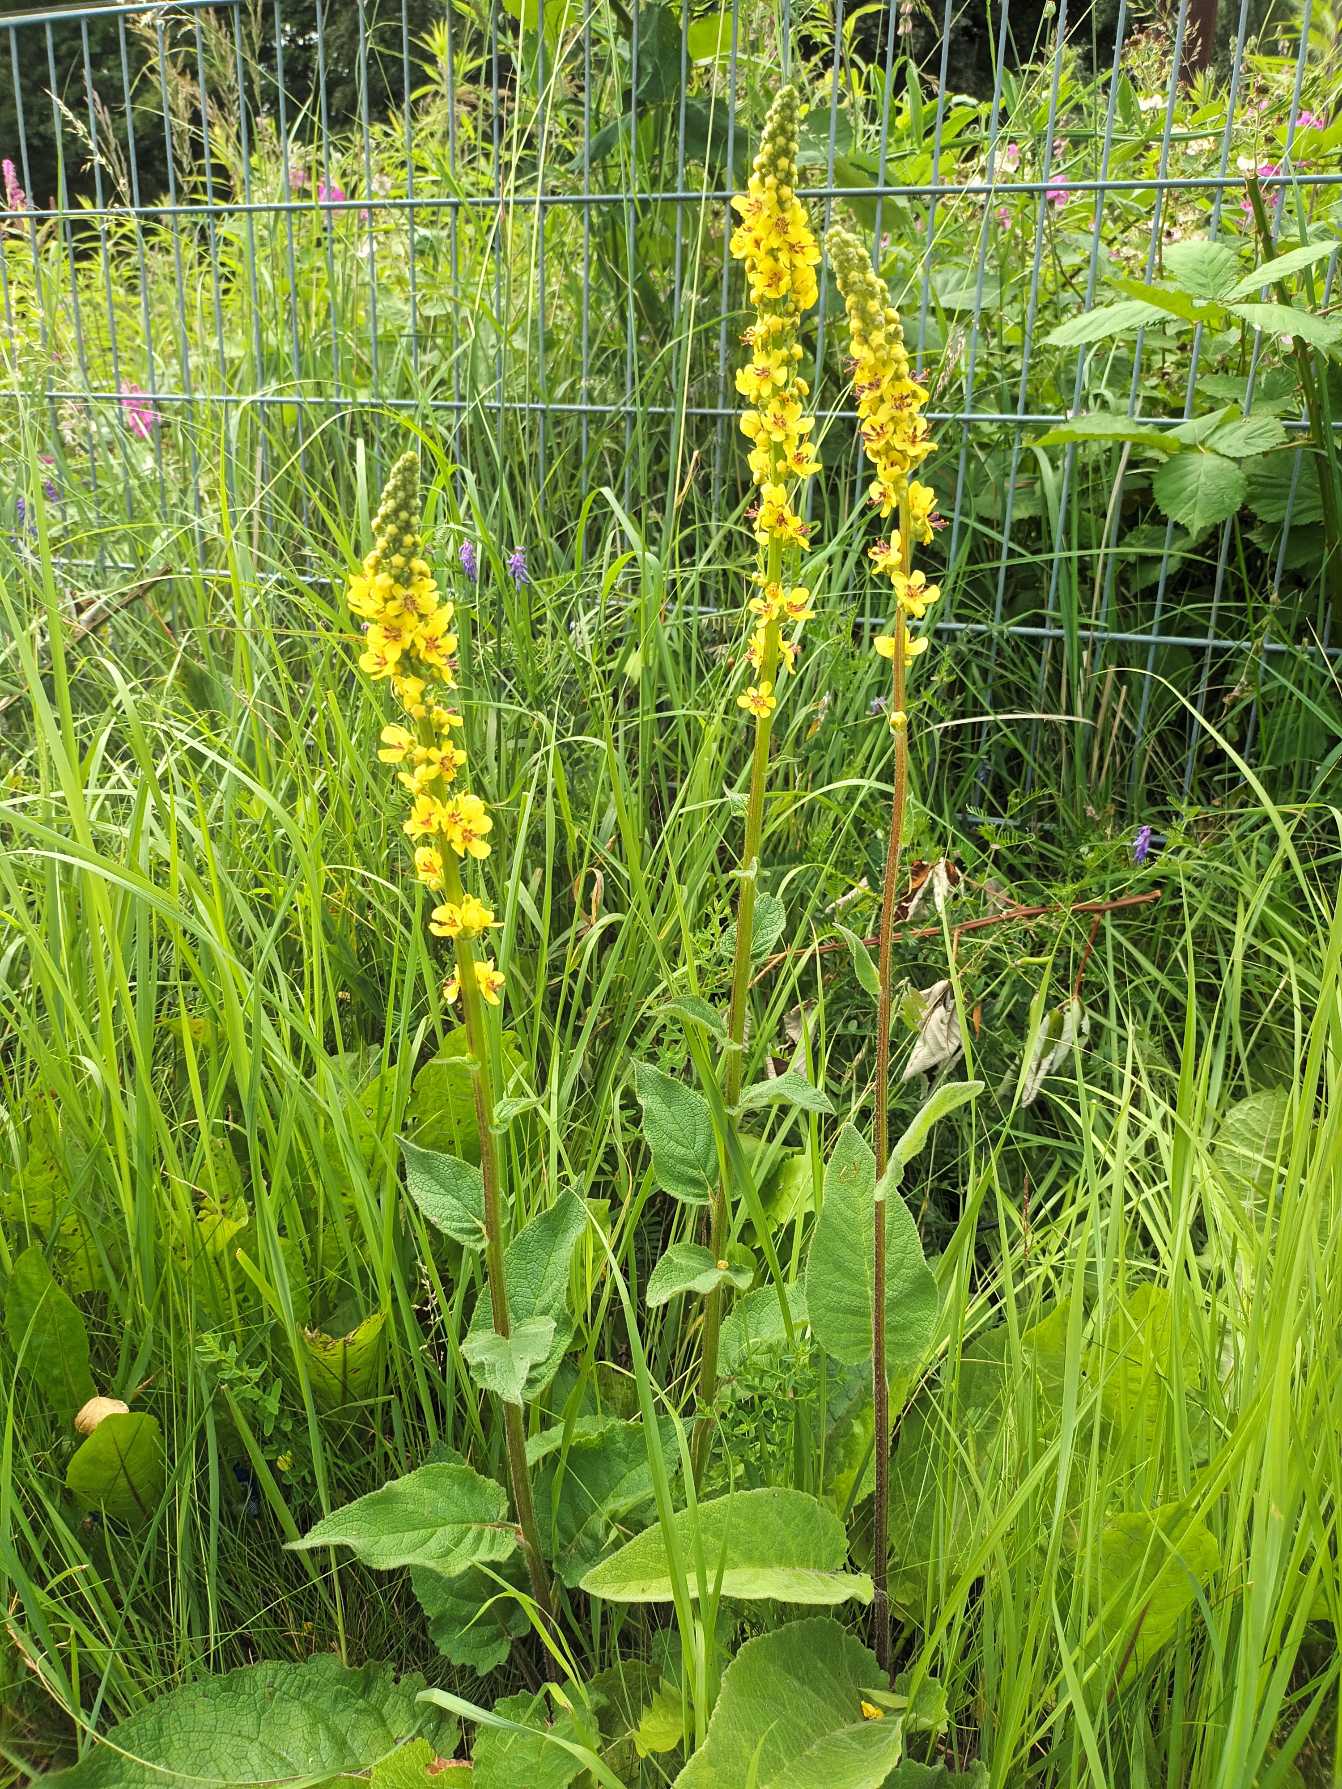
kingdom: Plantae
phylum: Tracheophyta
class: Magnoliopsida
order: Lamiales
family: Scrophulariaceae
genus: Verbascum
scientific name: Verbascum nigrum
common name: Mørk kongelys
